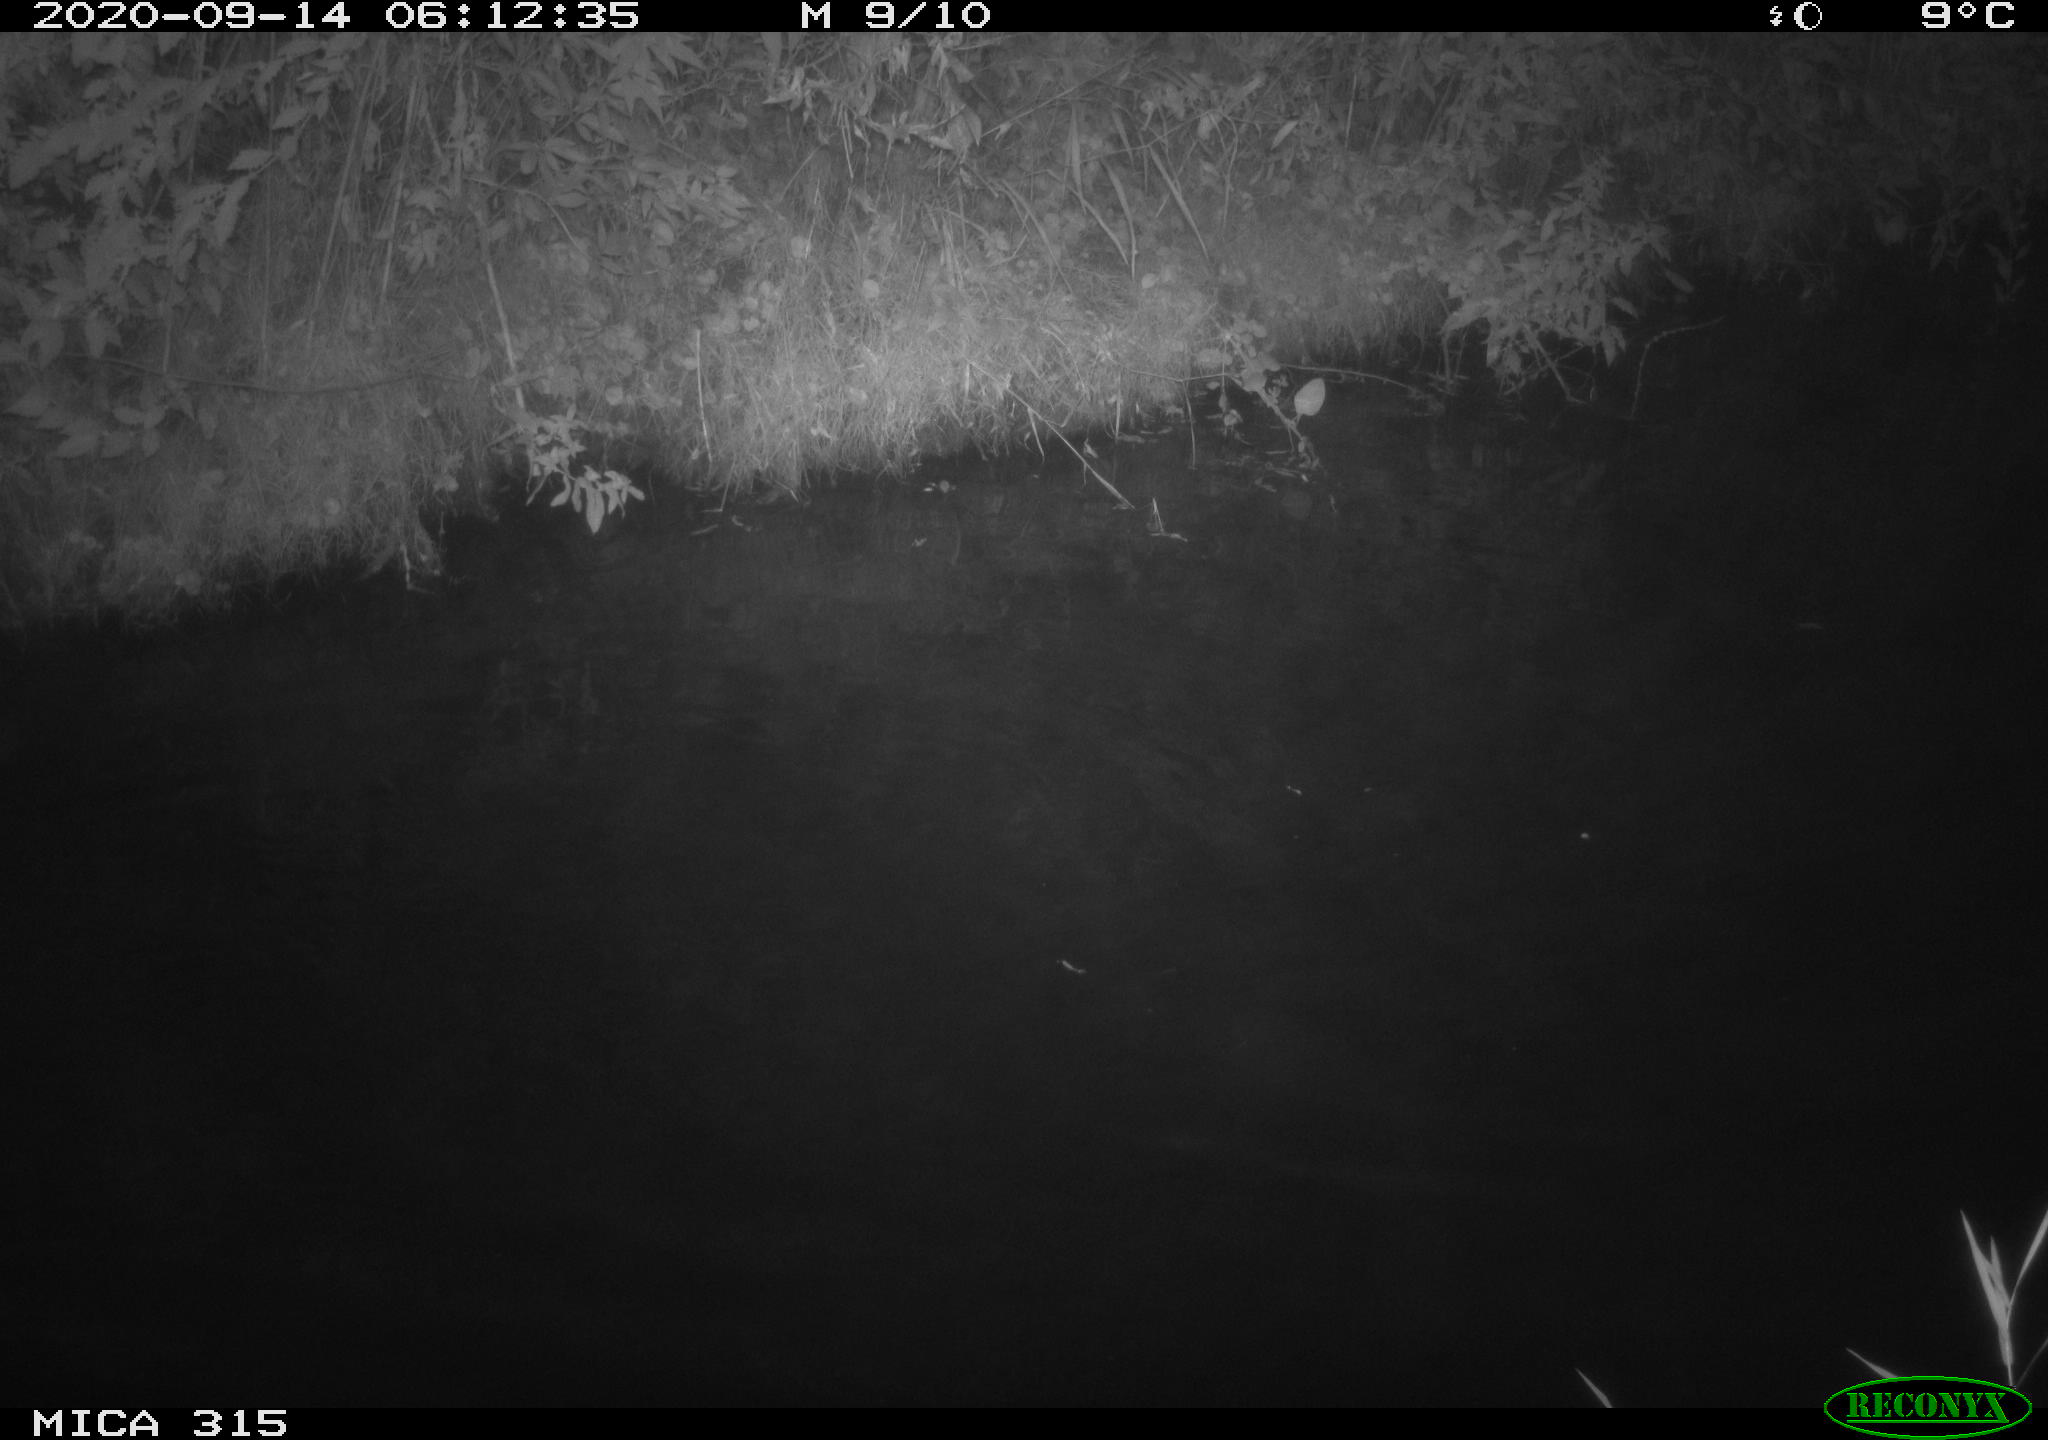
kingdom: Animalia
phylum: Chordata
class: Aves
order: Anseriformes
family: Anatidae
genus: Anas
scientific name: Anas platyrhynchos
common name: Mallard
